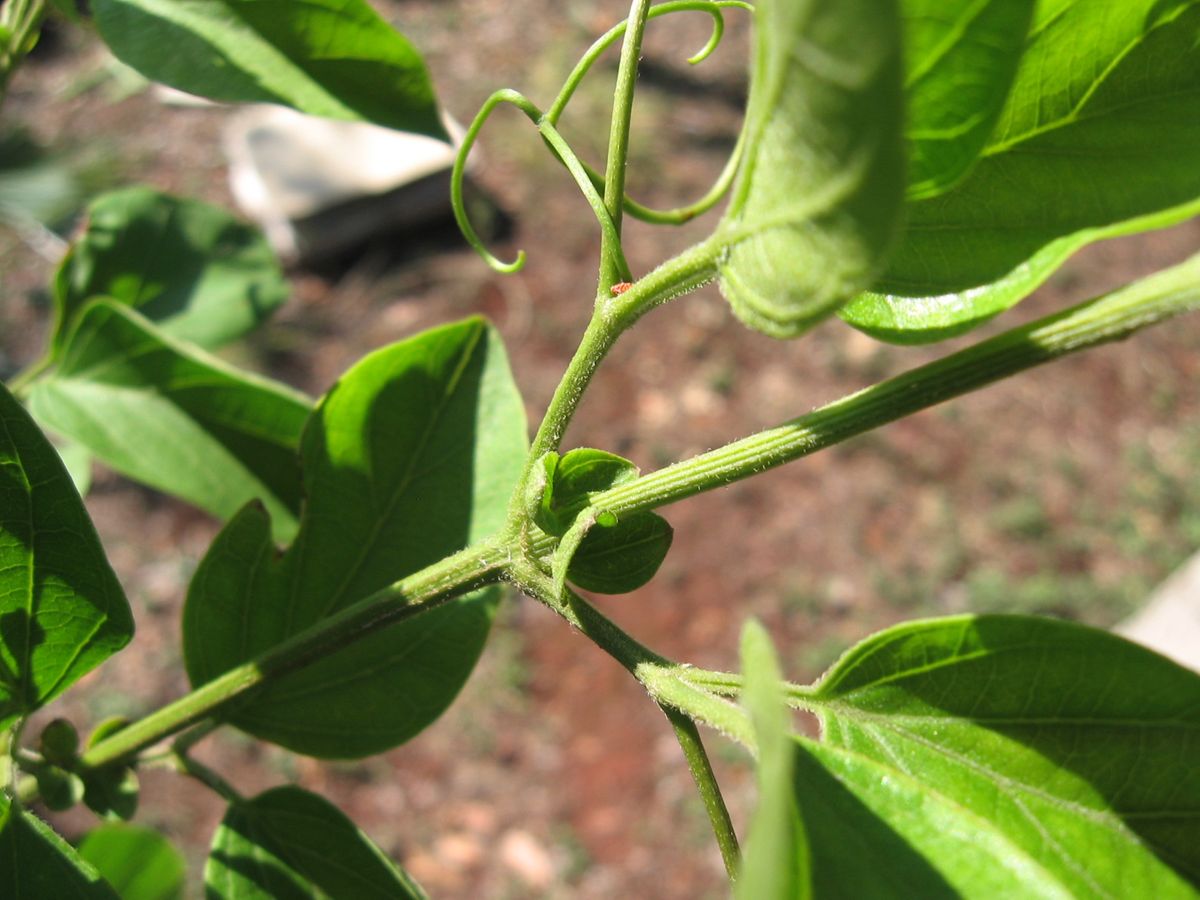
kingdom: Plantae
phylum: Tracheophyta
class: Magnoliopsida
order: Lamiales
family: Bignoniaceae
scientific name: Bignoniaceae
